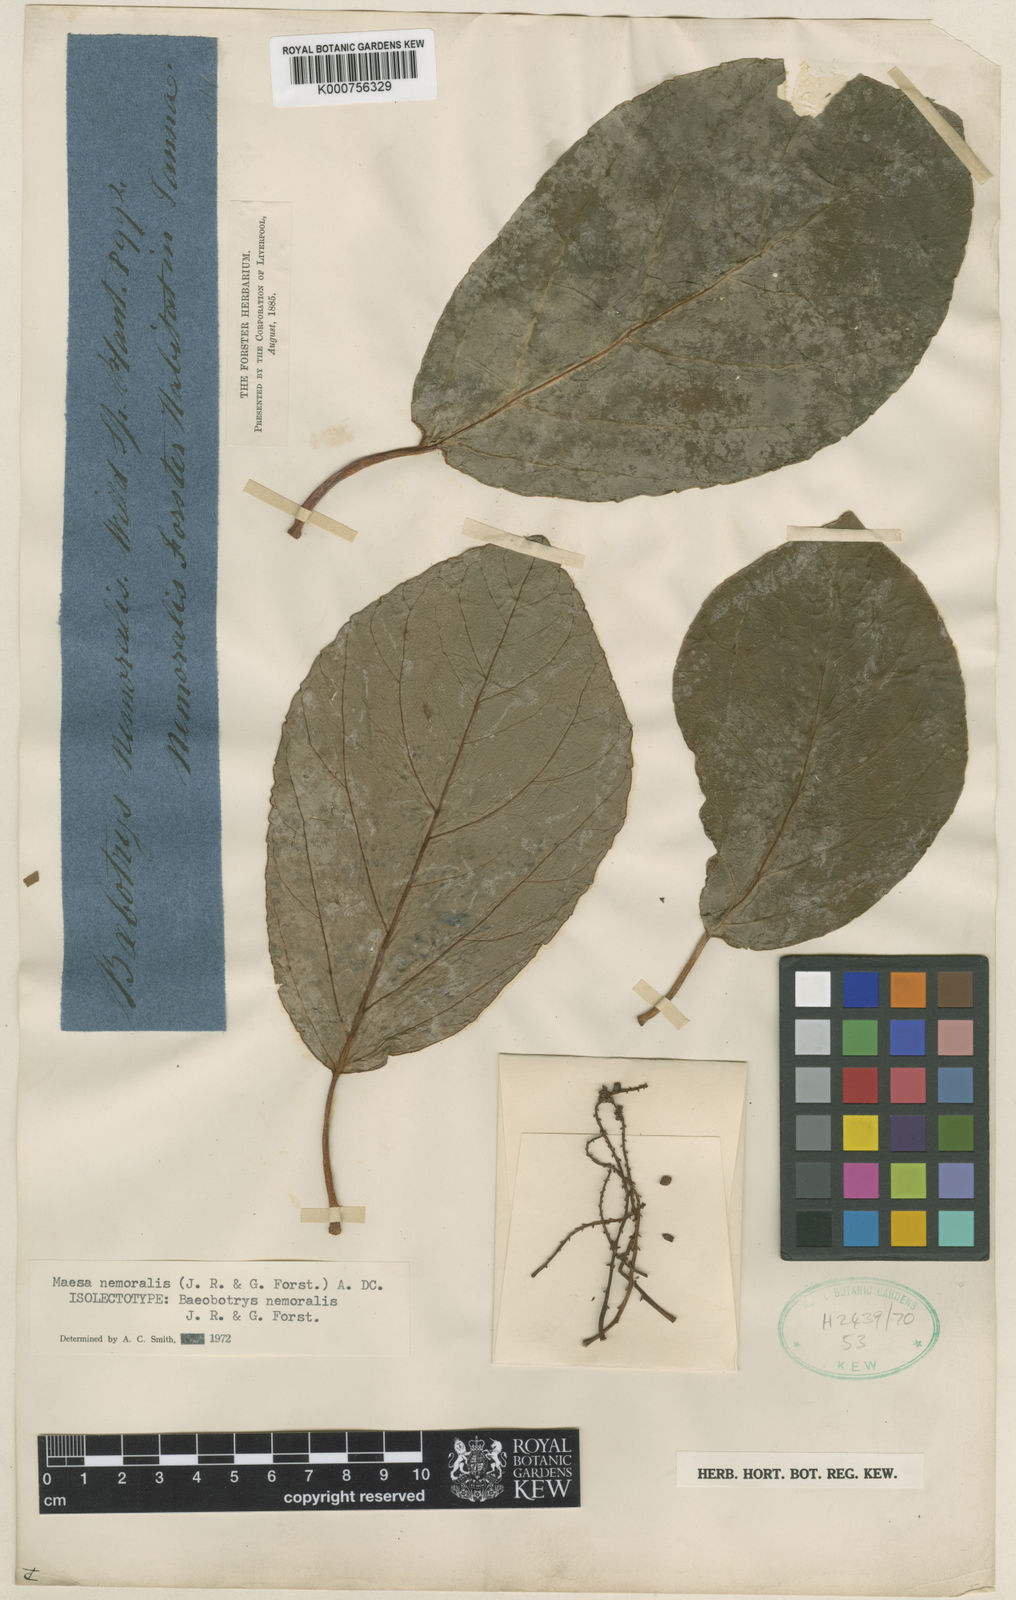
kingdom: Plantae
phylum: Tracheophyta
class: Magnoliopsida
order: Ericales
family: Primulaceae
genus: Maesa
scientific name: Maesa samoana
